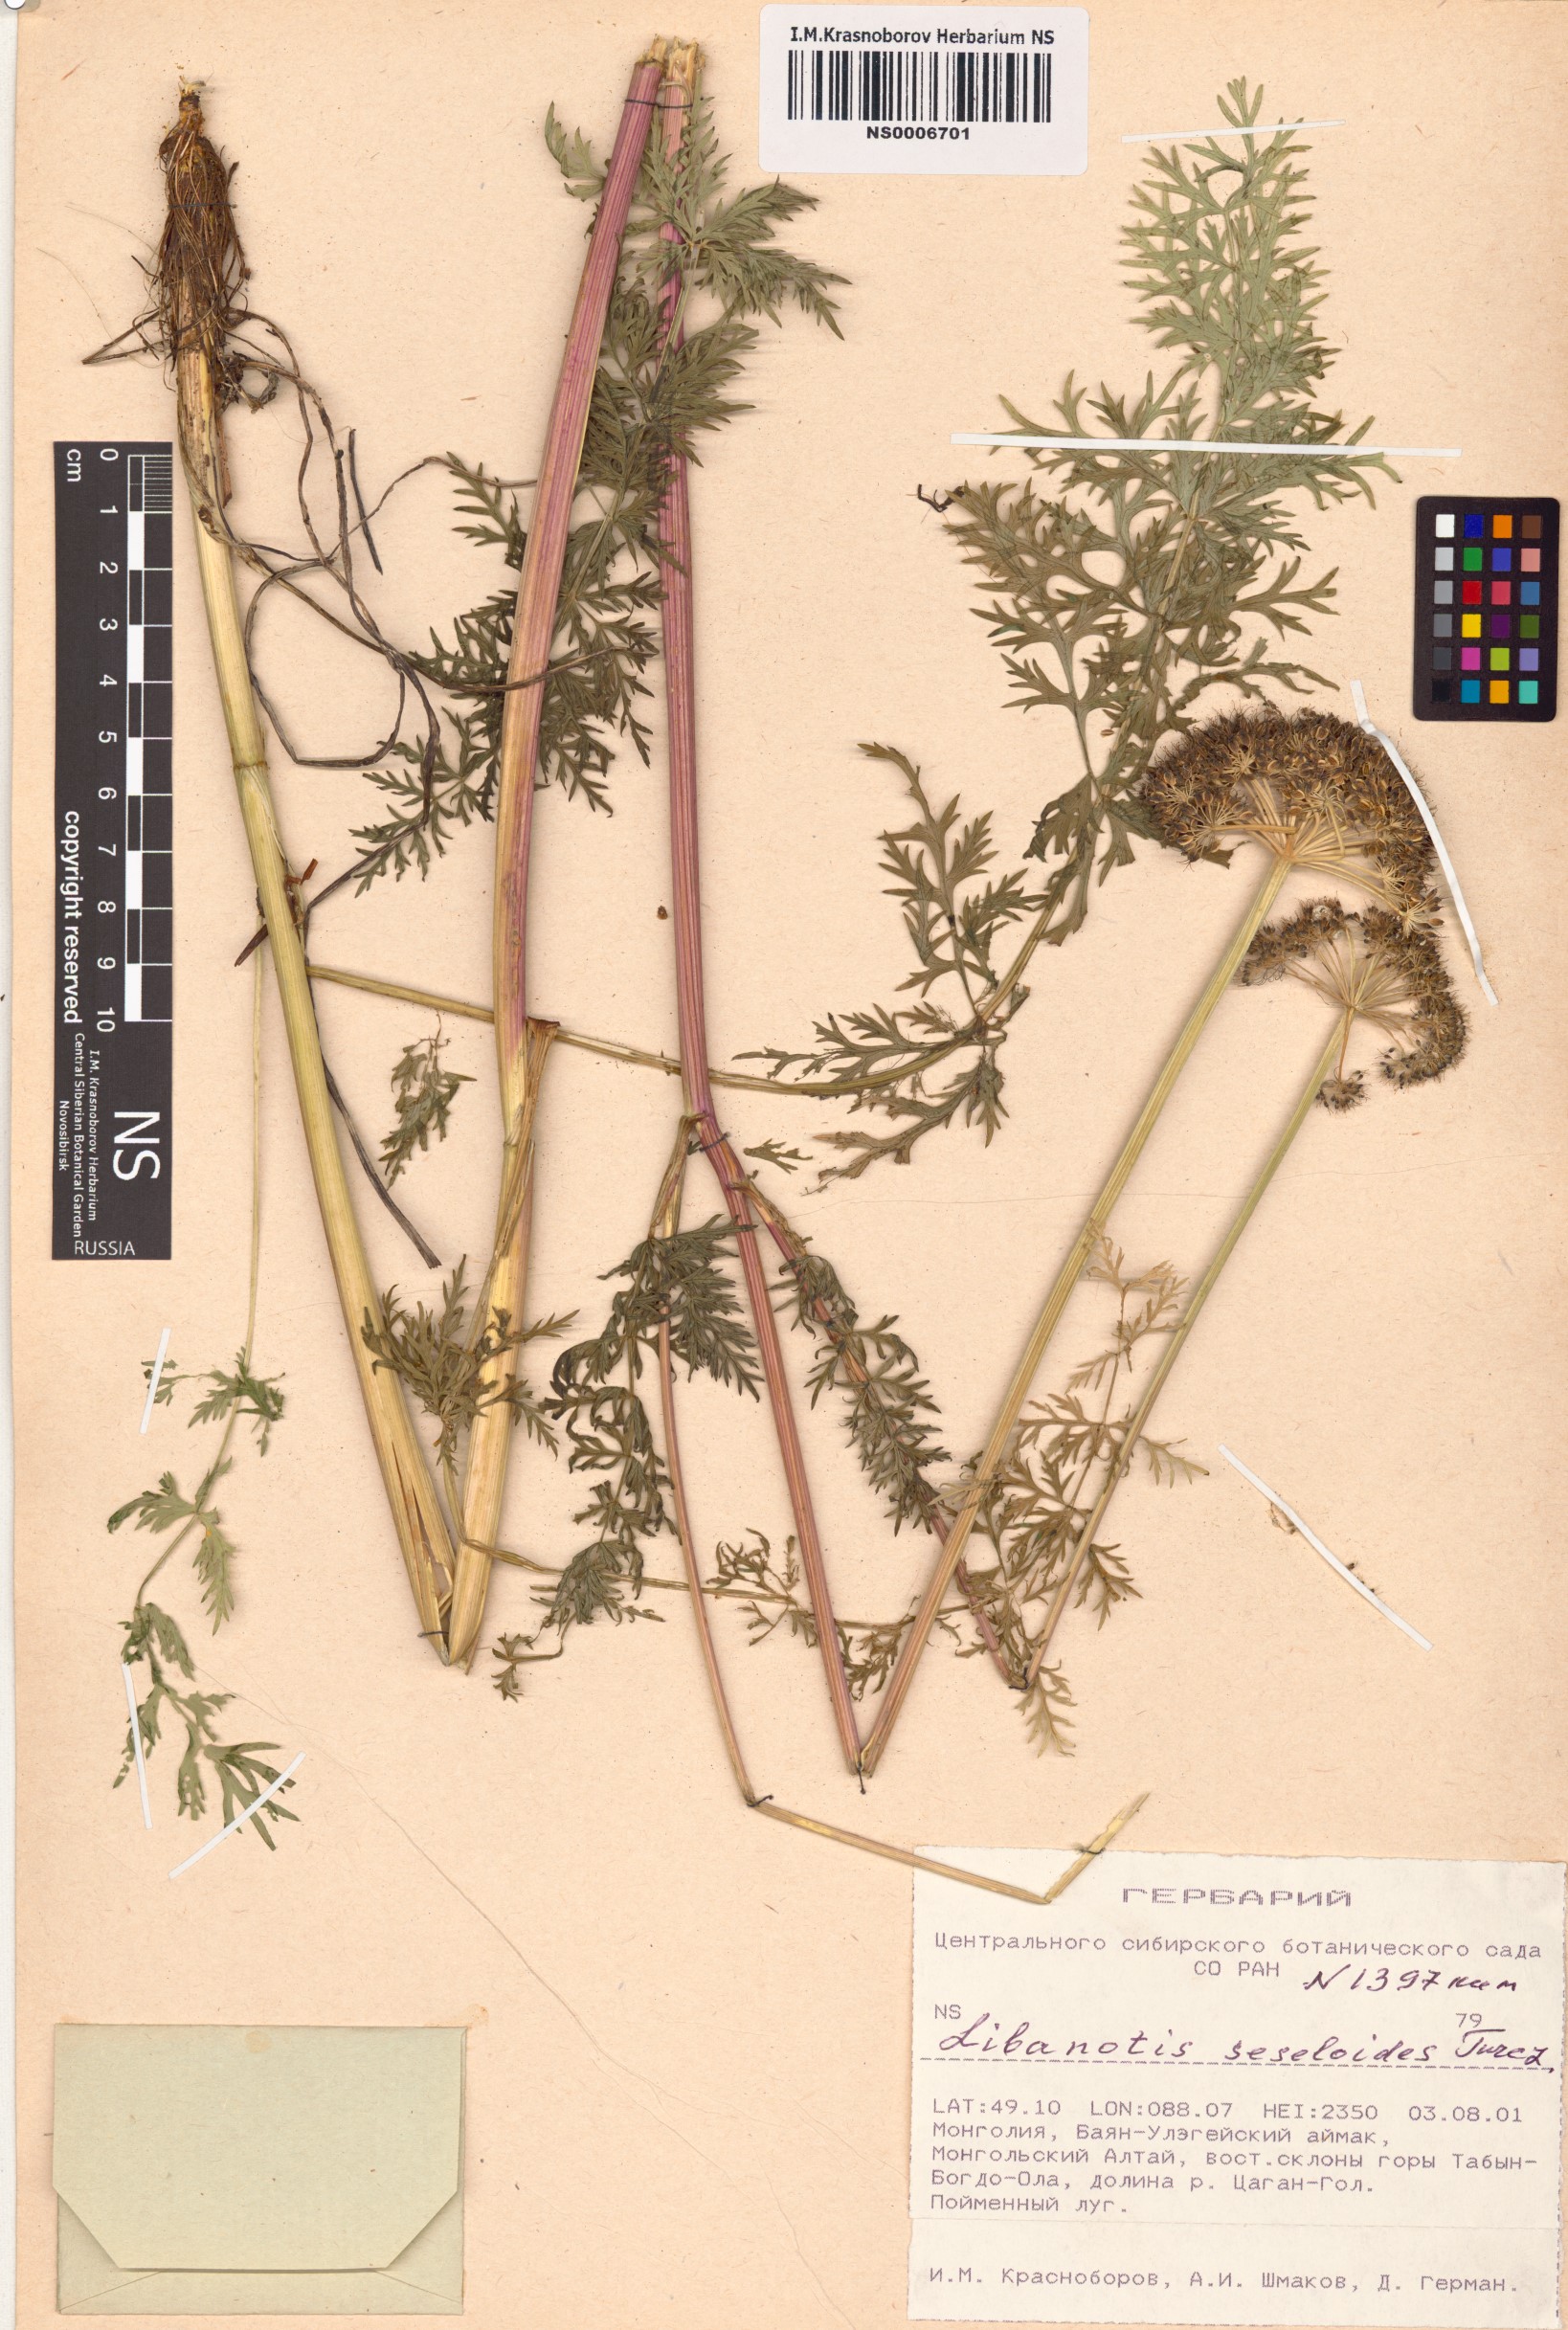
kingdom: Plantae
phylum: Tracheophyta
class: Magnoliopsida
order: Apiales
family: Apiaceae
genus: Seseli
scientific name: Seseli seseloides
